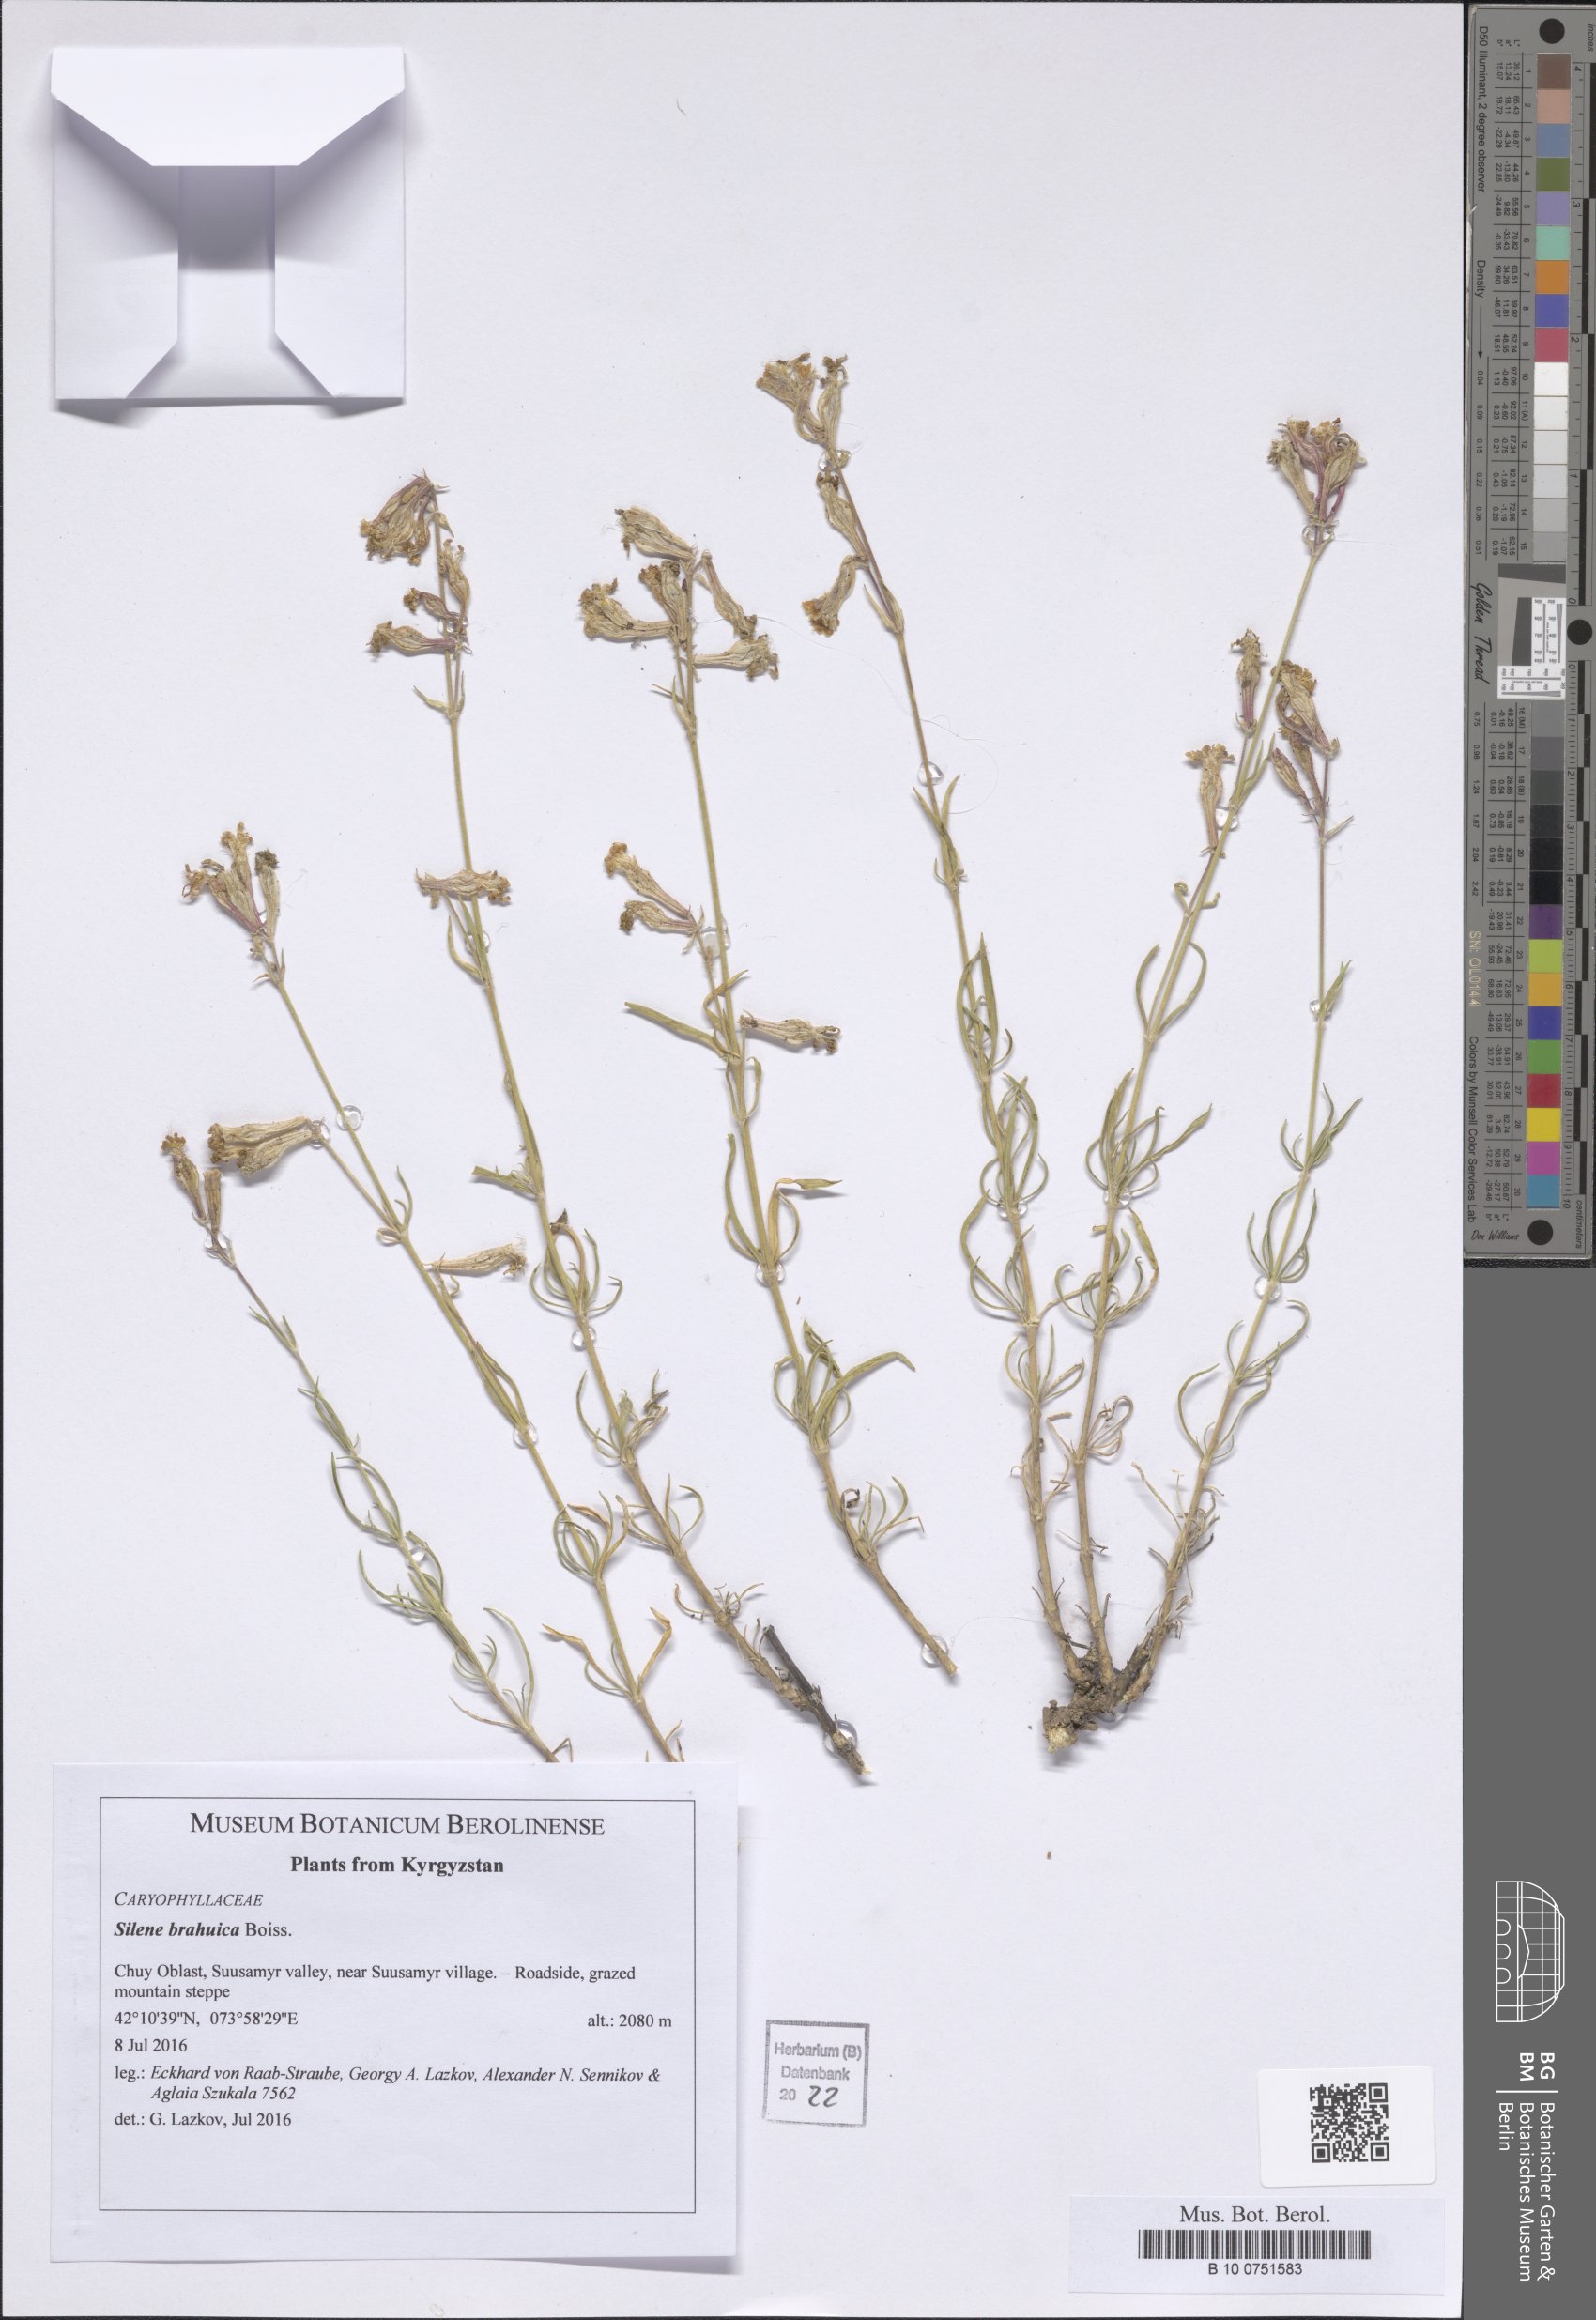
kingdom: Plantae
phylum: Tracheophyta
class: Magnoliopsida
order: Caryophyllales
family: Caryophyllaceae
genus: Silene
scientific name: Silene brahuica
